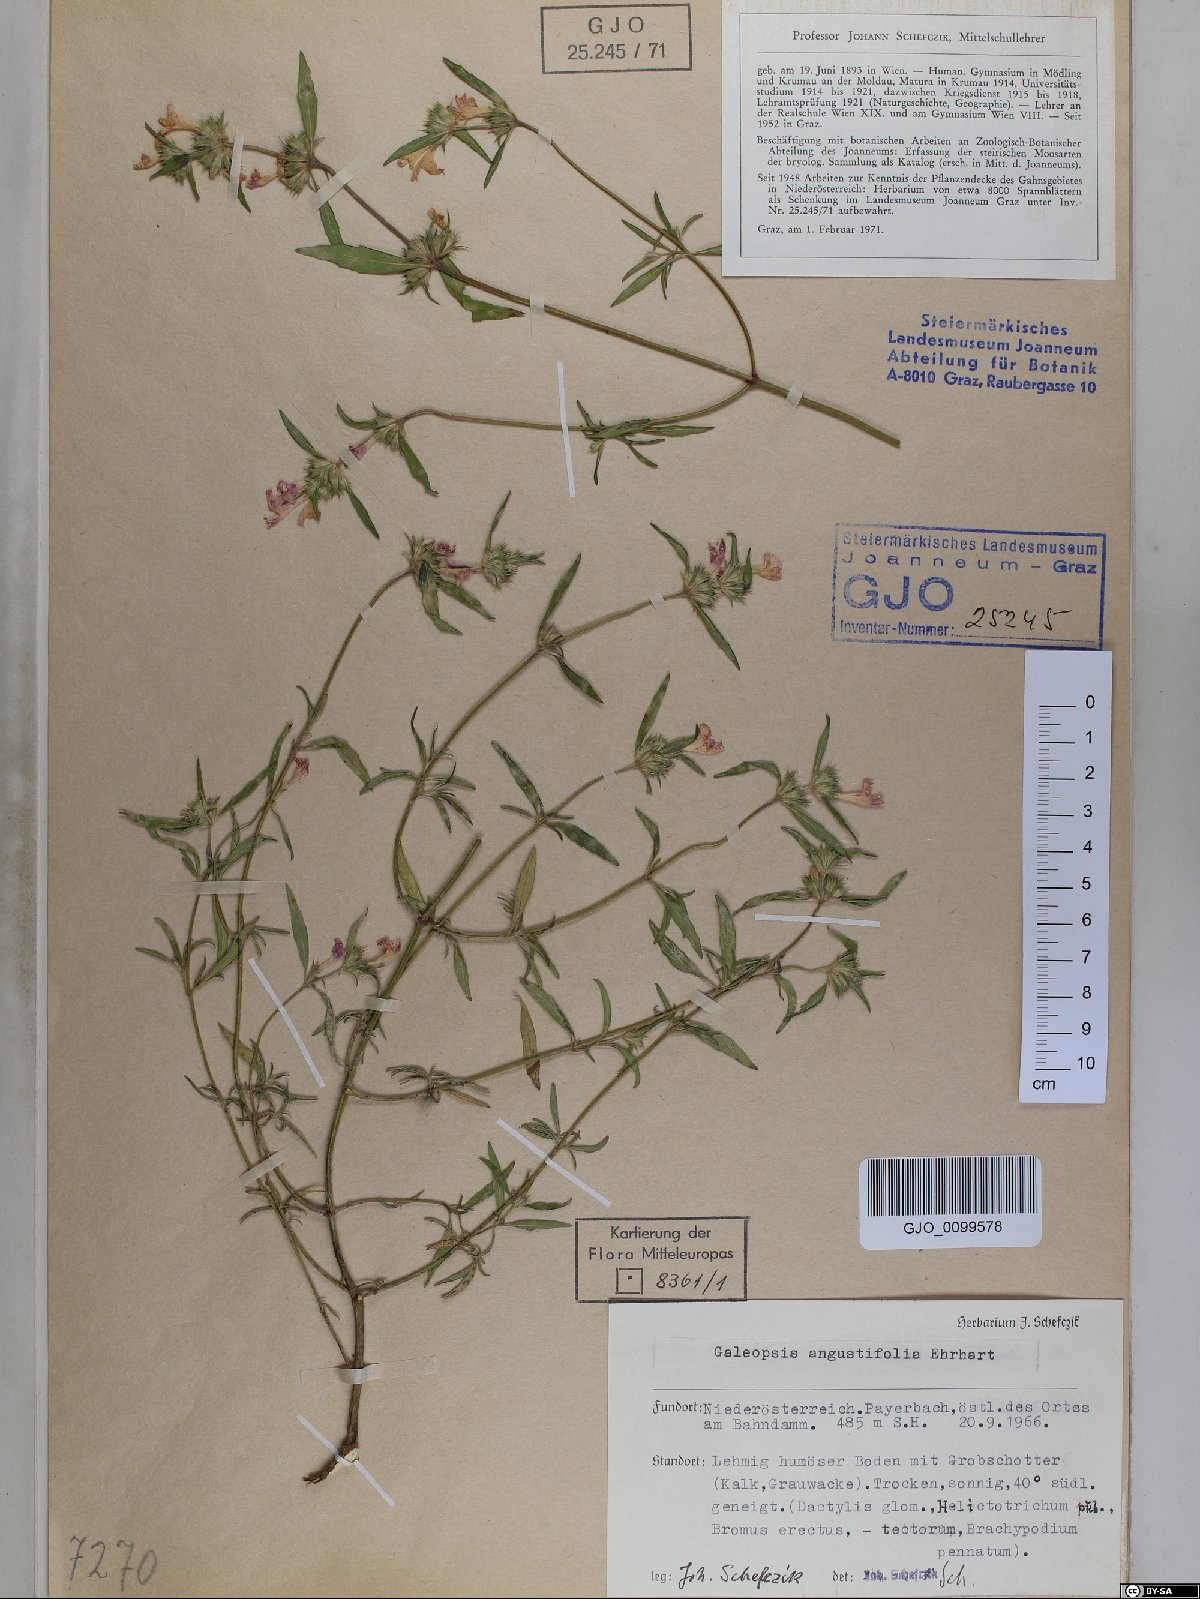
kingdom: Plantae
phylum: Tracheophyta
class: Magnoliopsida
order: Lamiales
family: Lamiaceae
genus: Galeopsis
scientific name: Galeopsis angustifolia
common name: Red hemp-nettle
